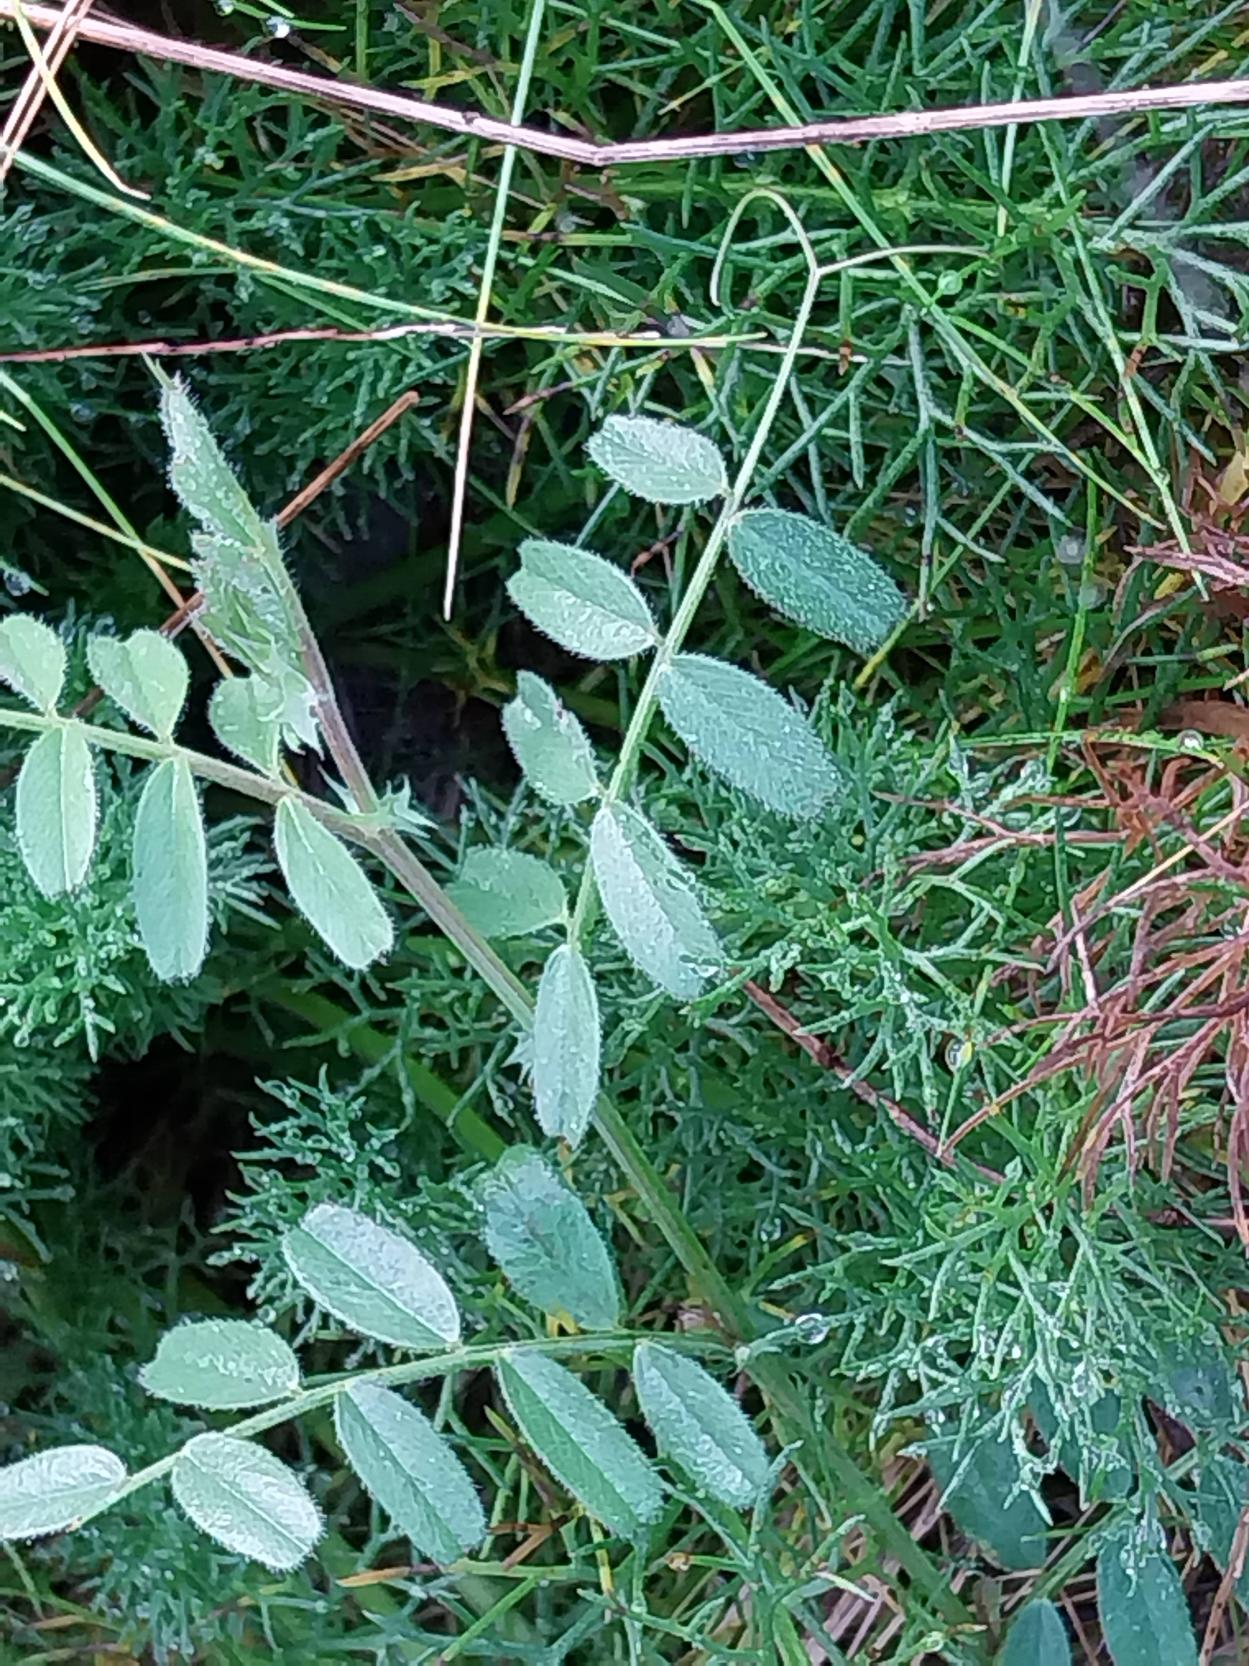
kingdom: Plantae
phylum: Tracheophyta
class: Magnoliopsida
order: Fabales
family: Fabaceae
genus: Vicia
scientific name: Vicia sativa
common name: Foder-vikke
